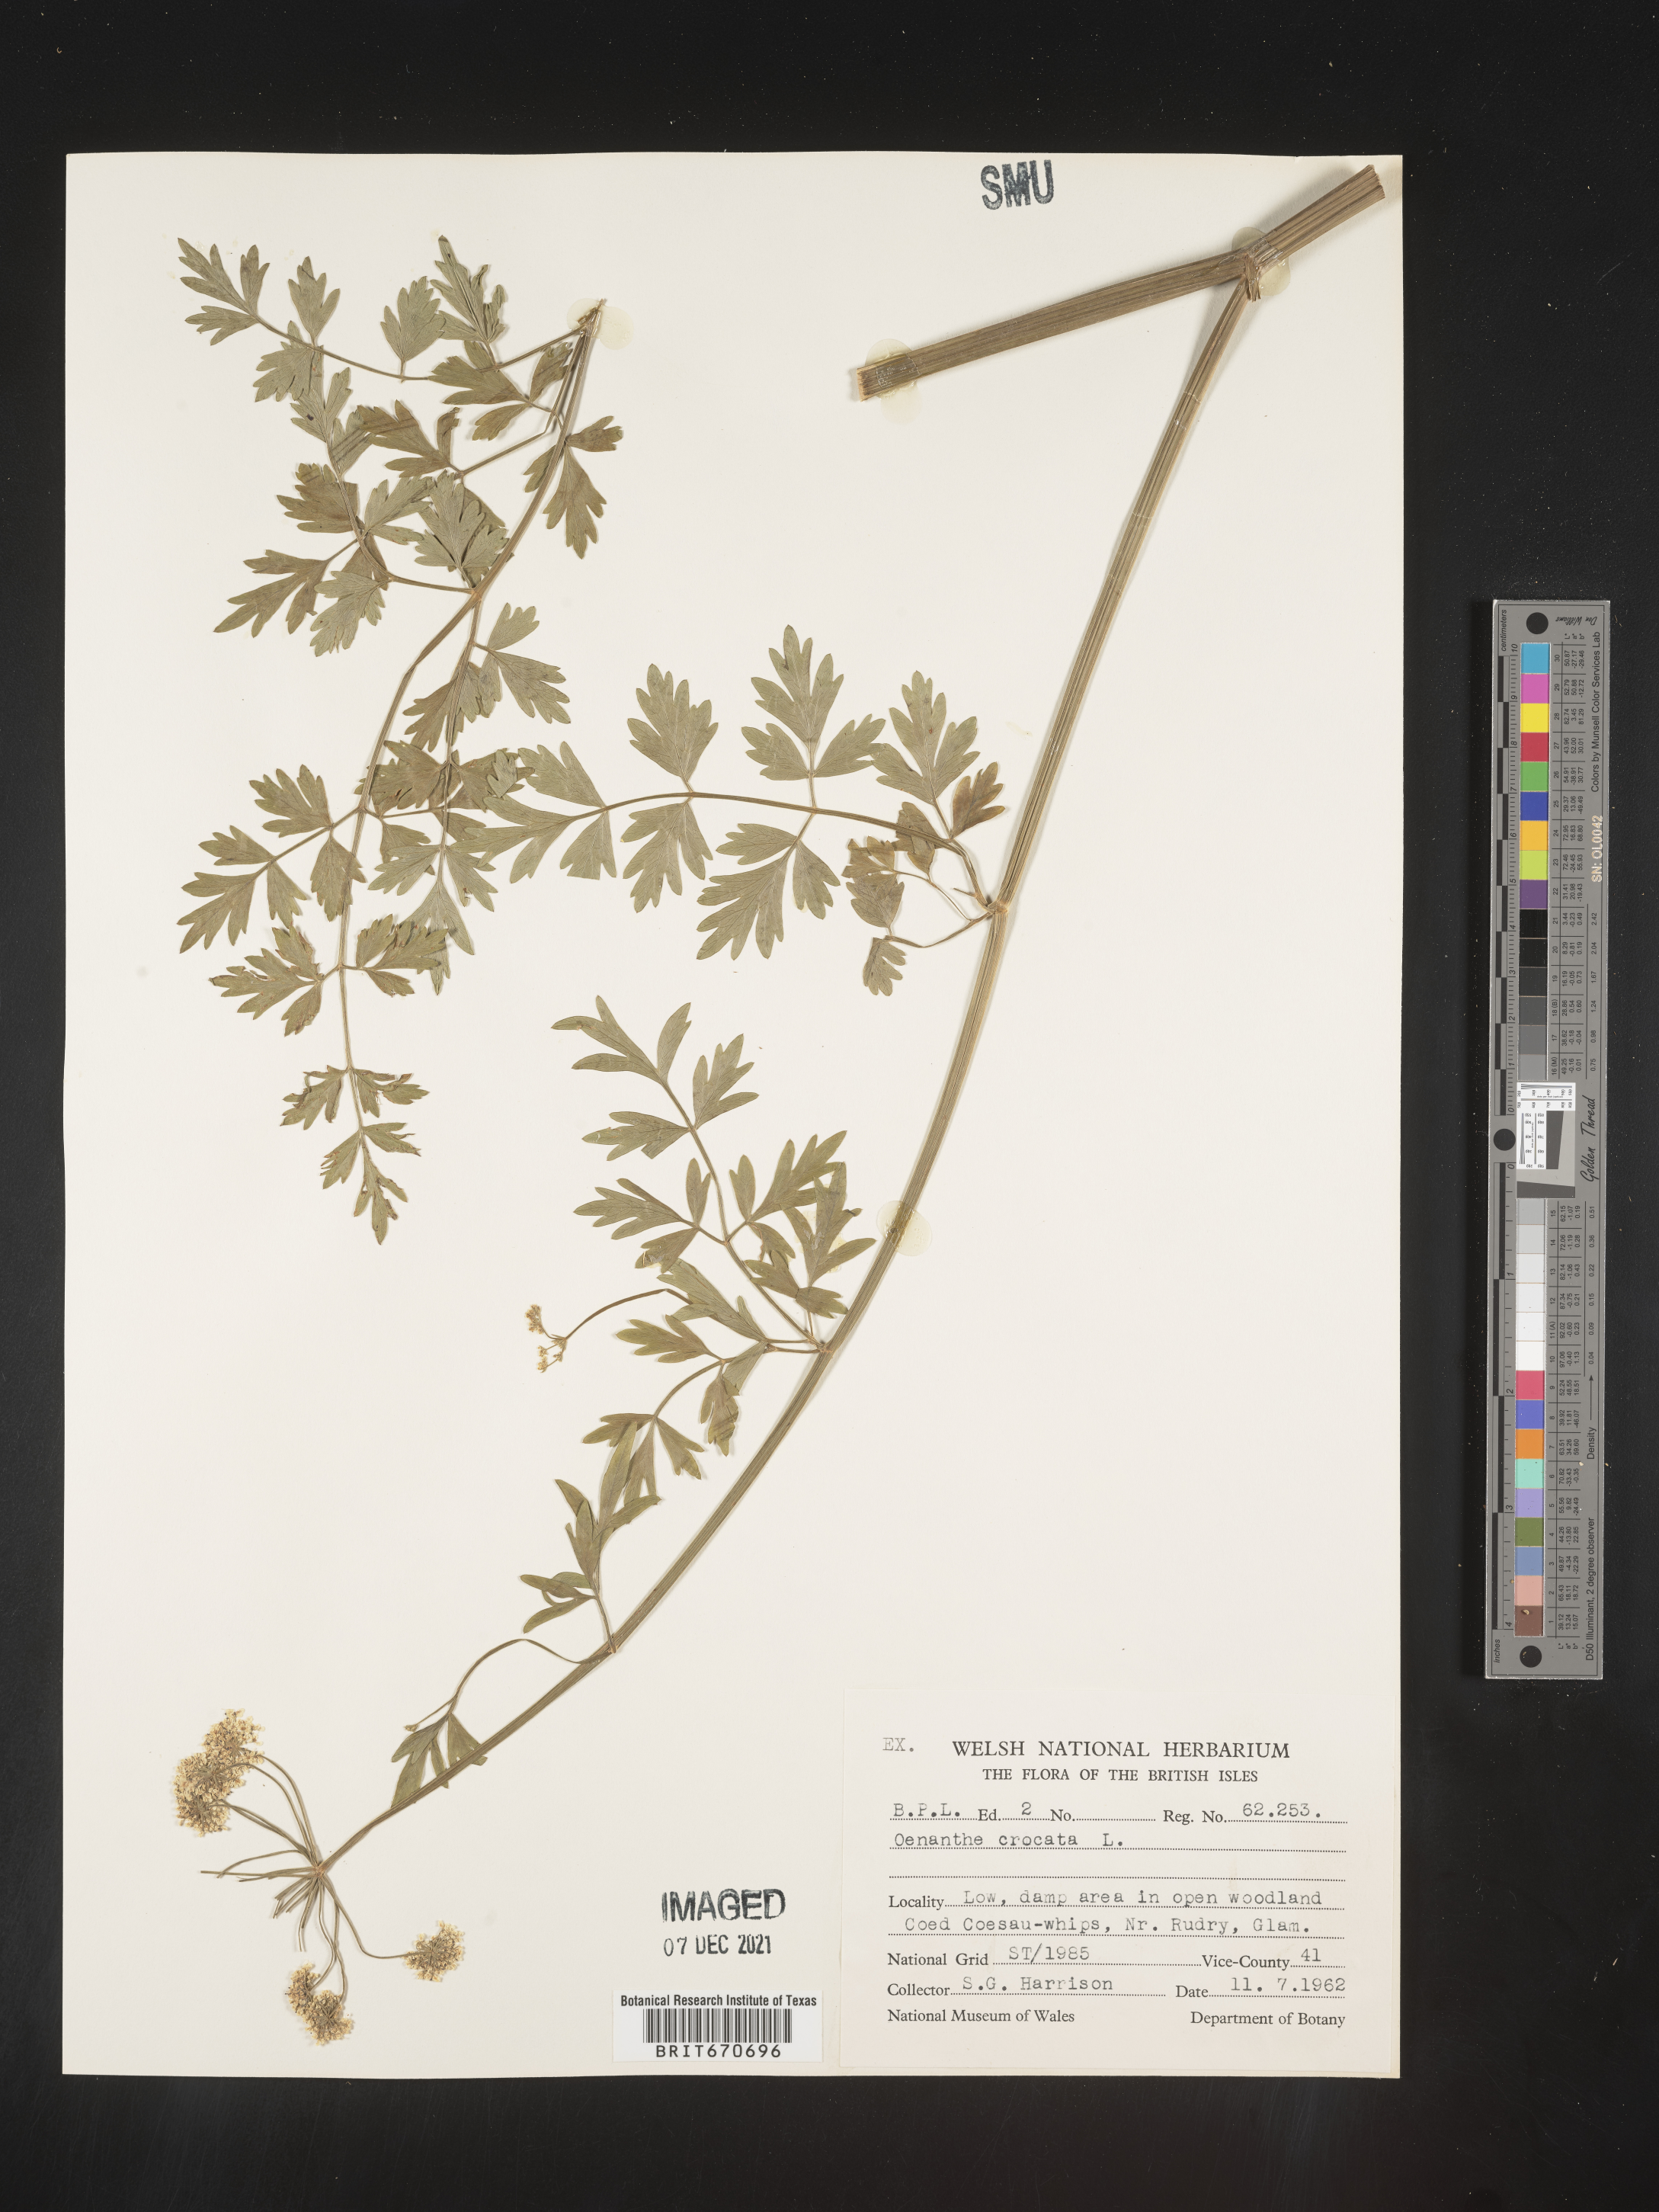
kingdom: Plantae
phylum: Tracheophyta
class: Magnoliopsida
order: Apiales
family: Apiaceae
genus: Oenanthe
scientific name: Oenanthe
